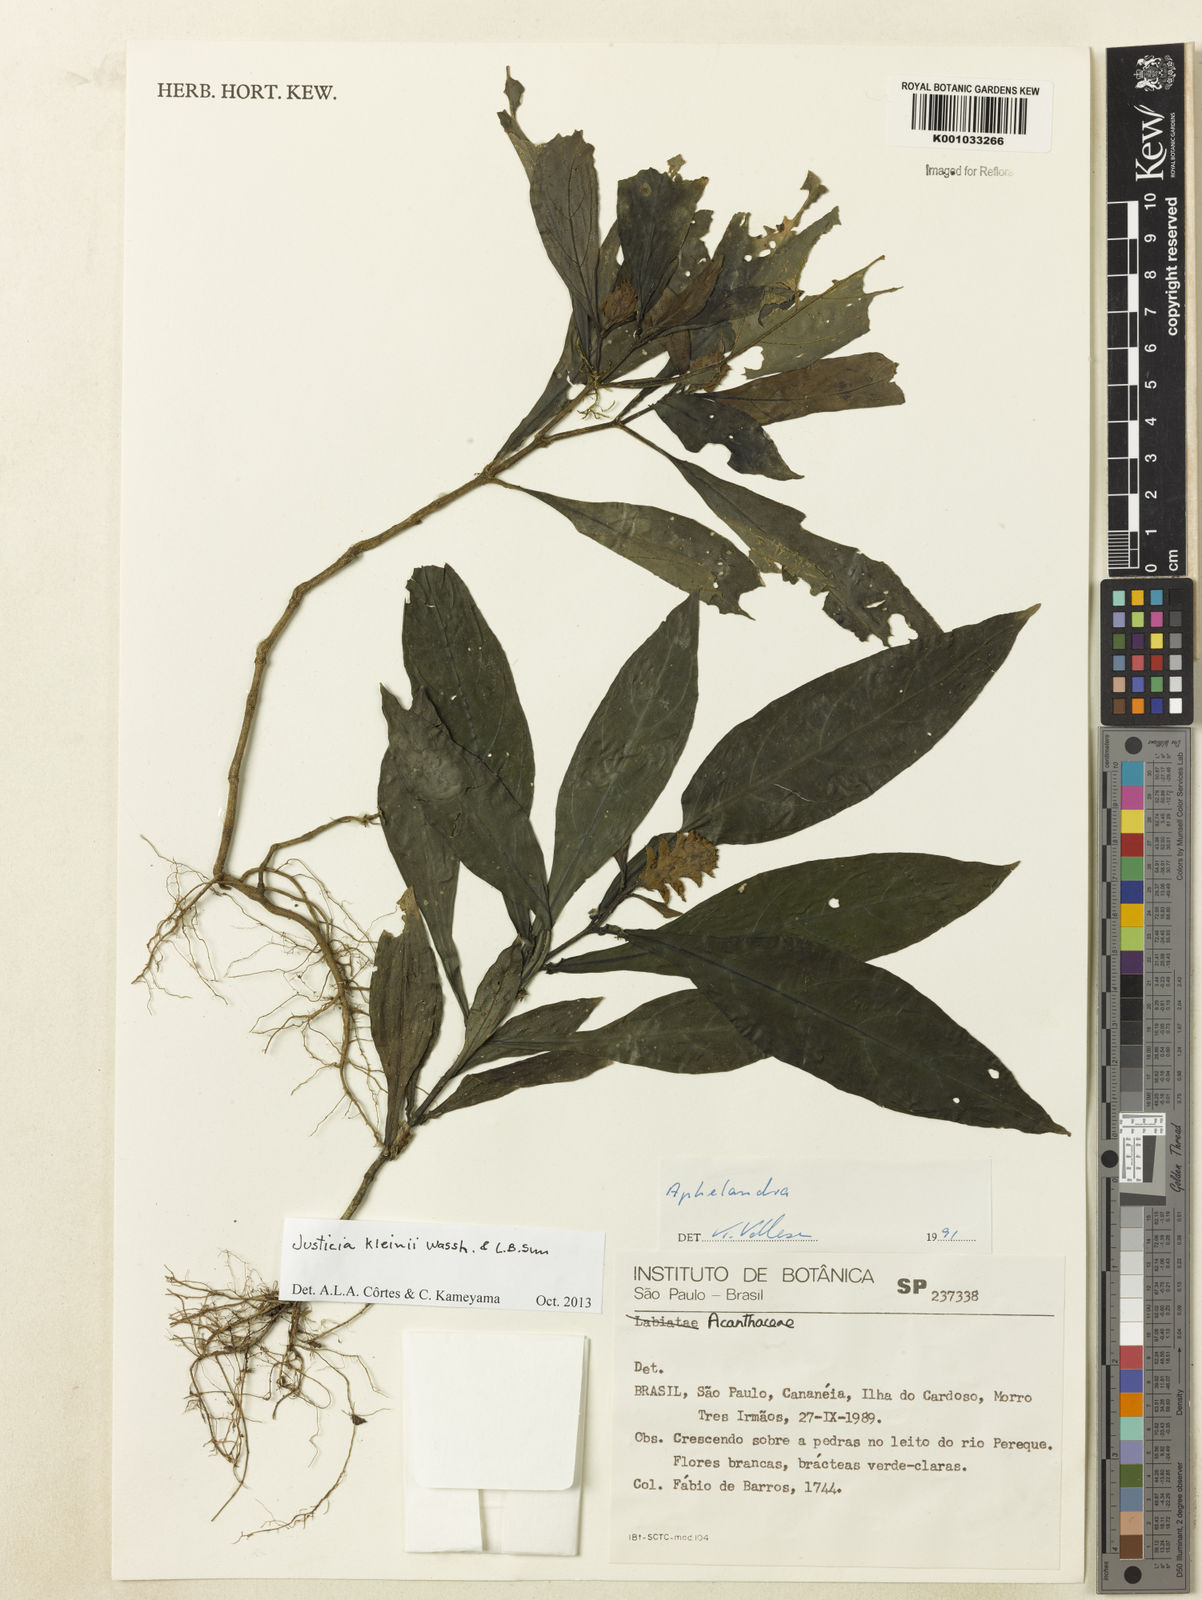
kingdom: Plantae
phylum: Tracheophyta
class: Magnoliopsida
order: Lamiales
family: Acanthaceae
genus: Justicia
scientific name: Justicia kleinii
